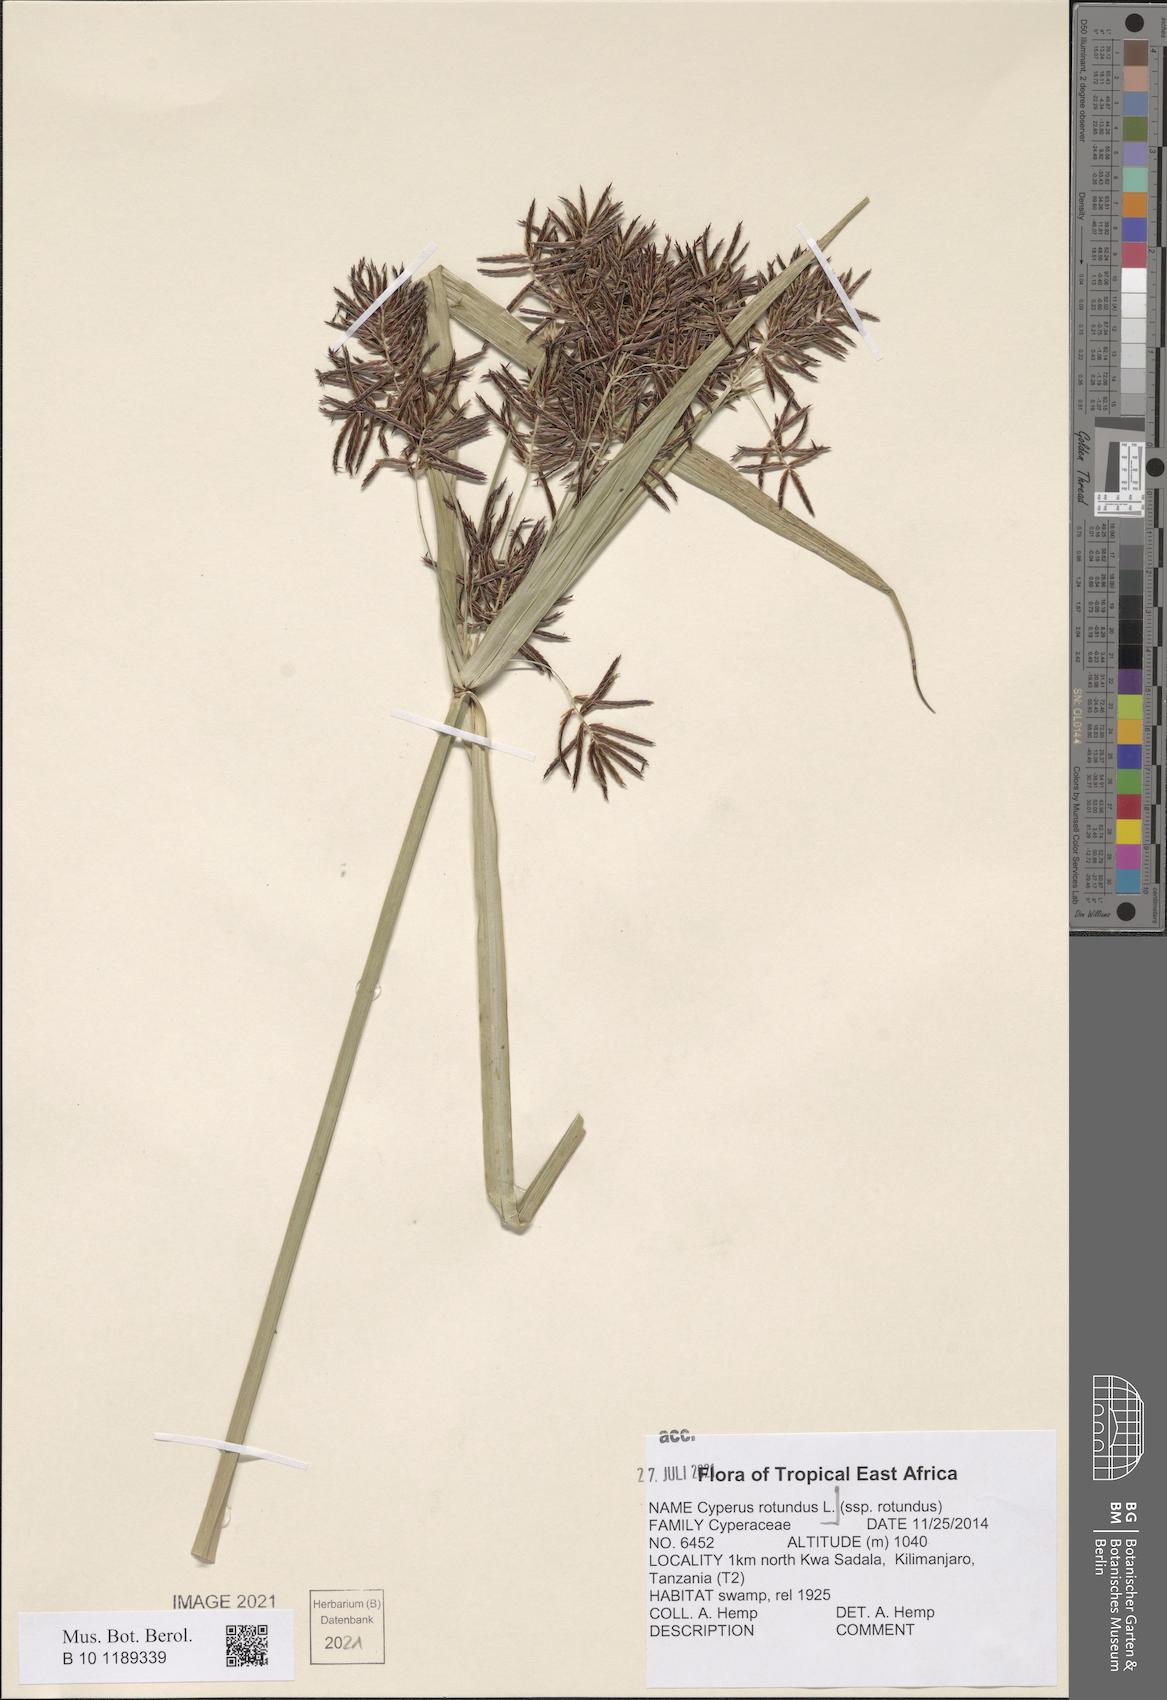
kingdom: Plantae
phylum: Tracheophyta
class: Liliopsida
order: Poales
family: Cyperaceae
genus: Cyperus
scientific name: Cyperus rotundus
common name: Nutgrass
